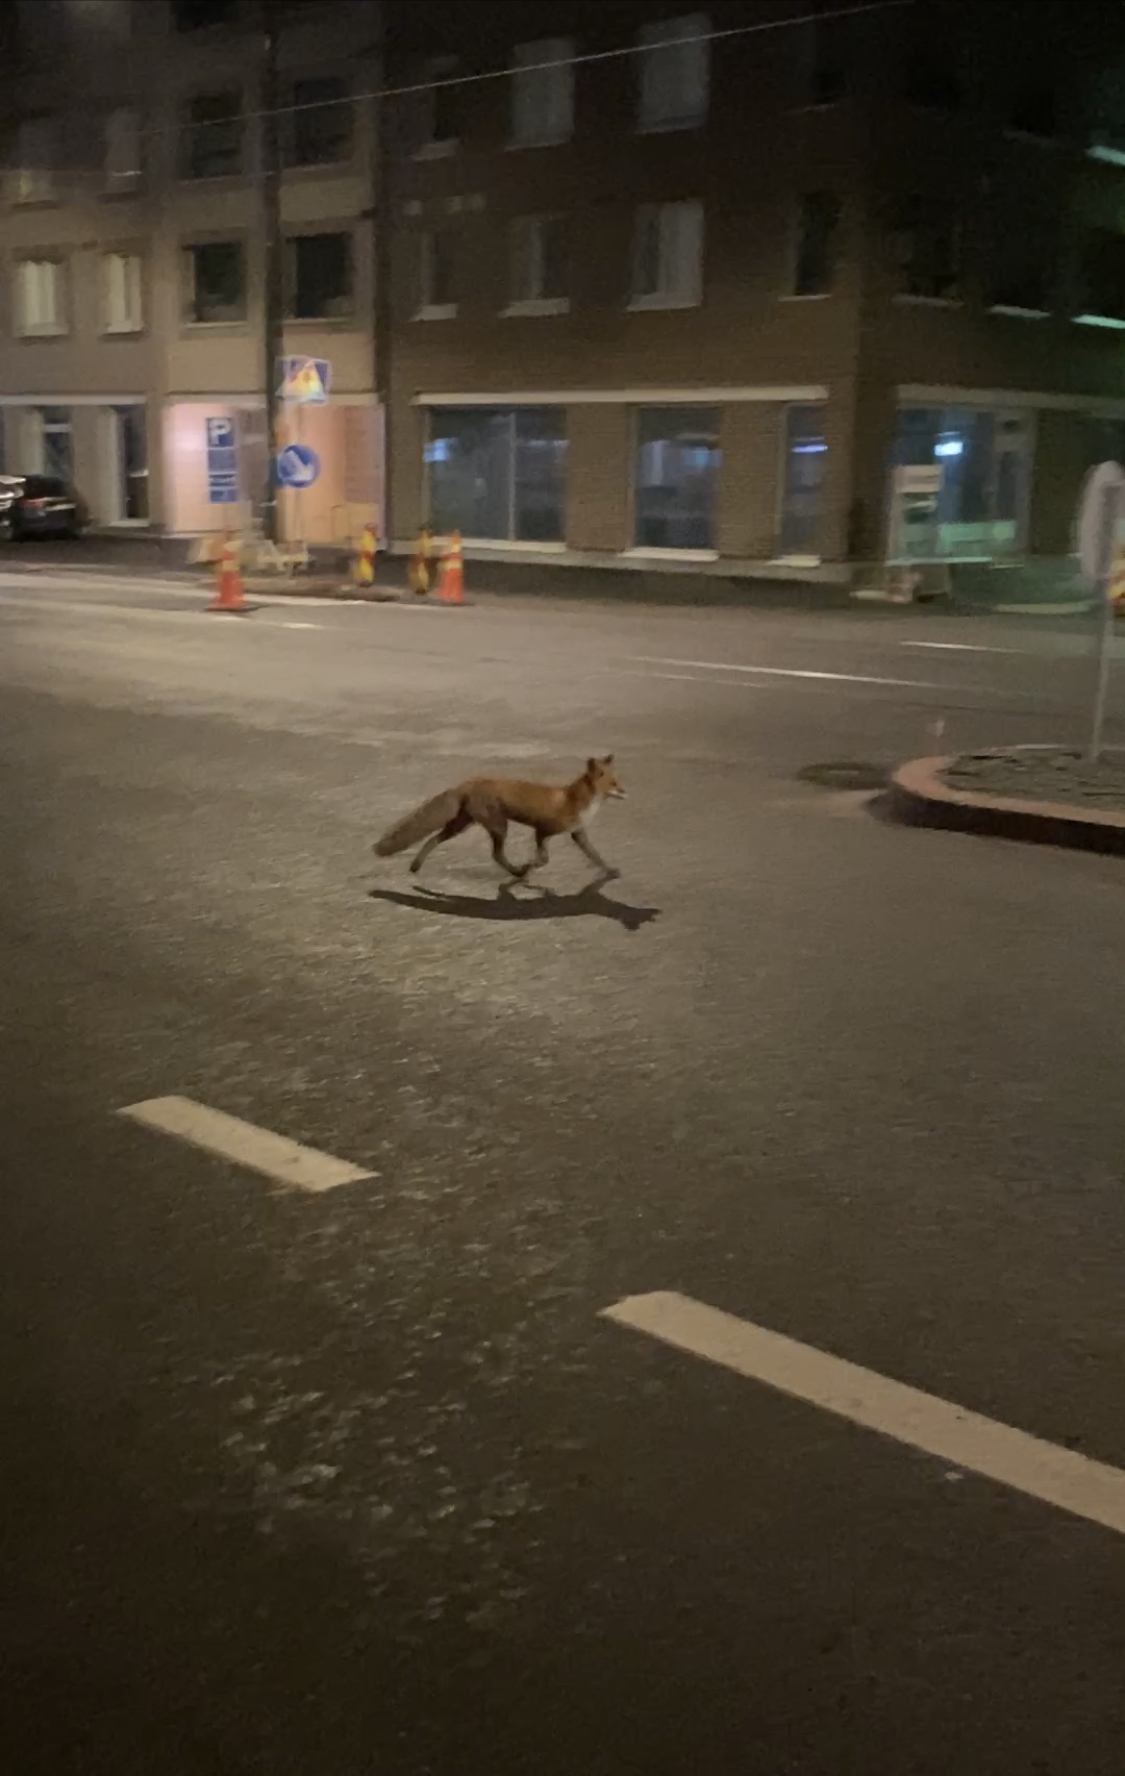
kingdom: Animalia
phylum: Chordata
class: Mammalia
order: Carnivora
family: Canidae
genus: Vulpes
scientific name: Vulpes vulpes
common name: Red fox
